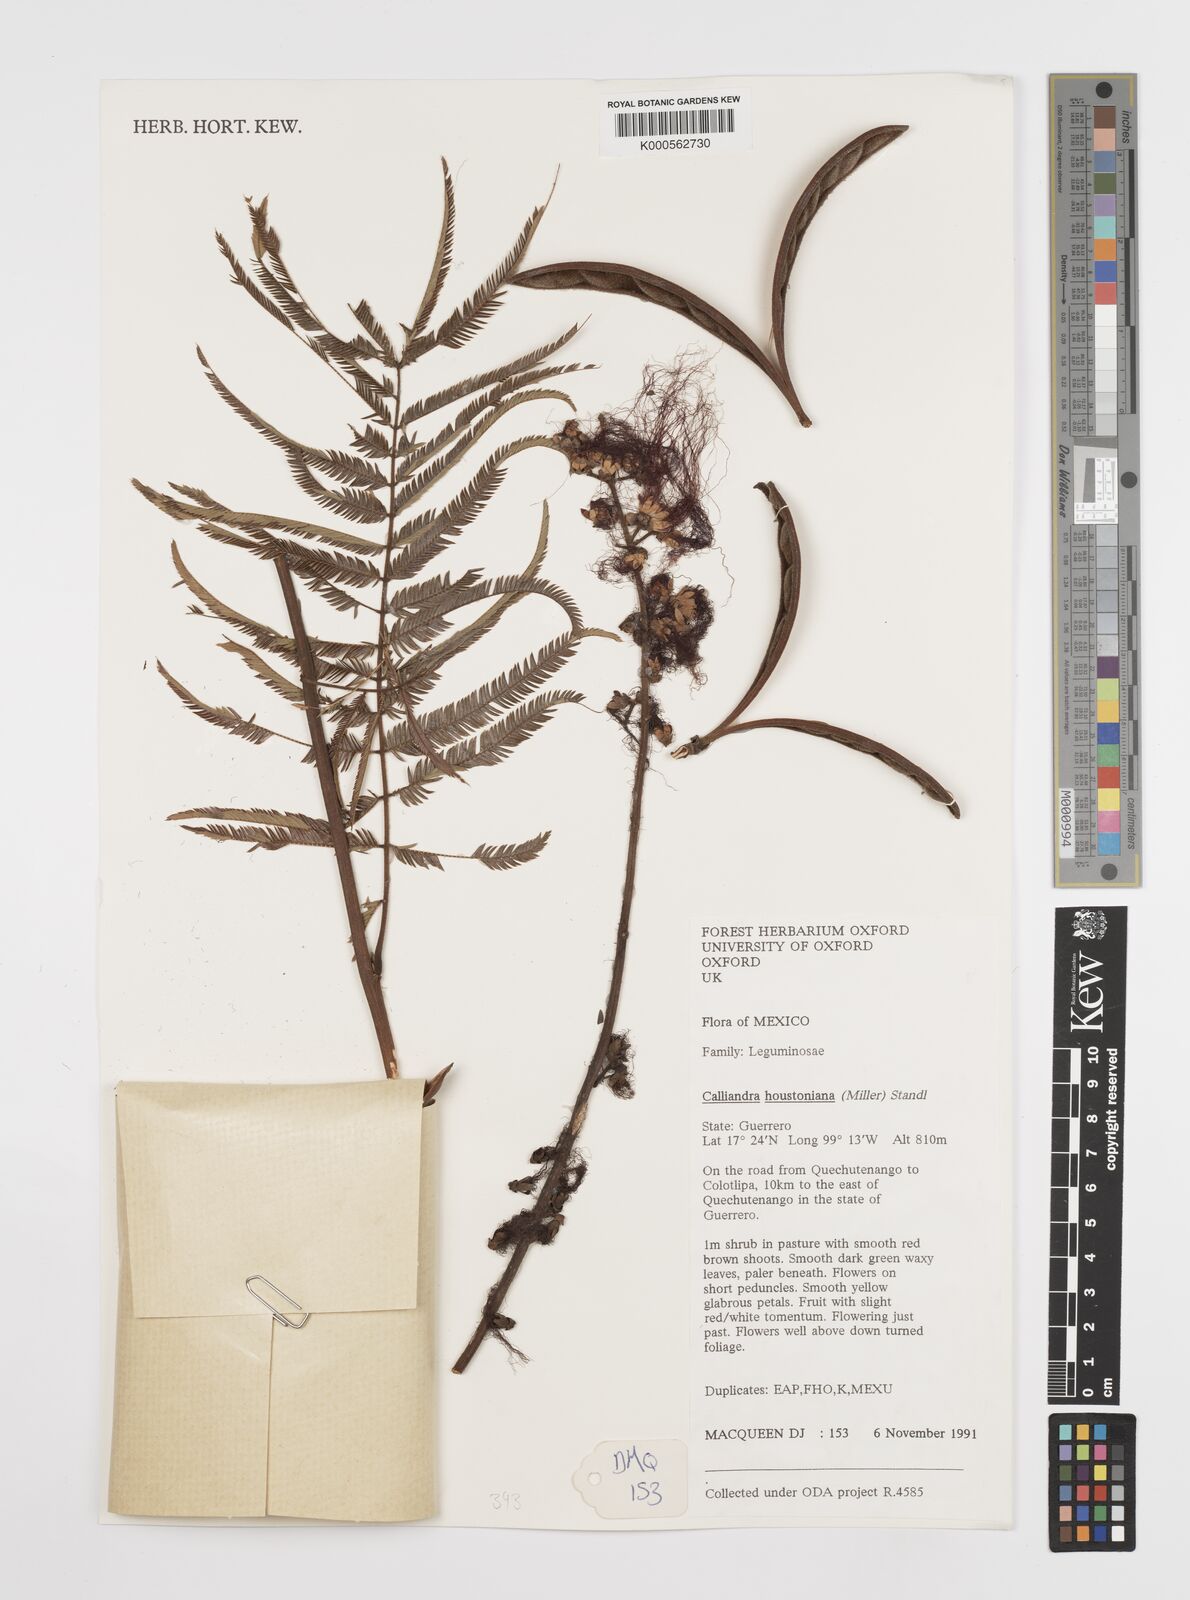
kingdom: Plantae
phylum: Tracheophyta
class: Magnoliopsida
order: Fabales
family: Fabaceae
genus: Calliandra
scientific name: Calliandra houstoniana
